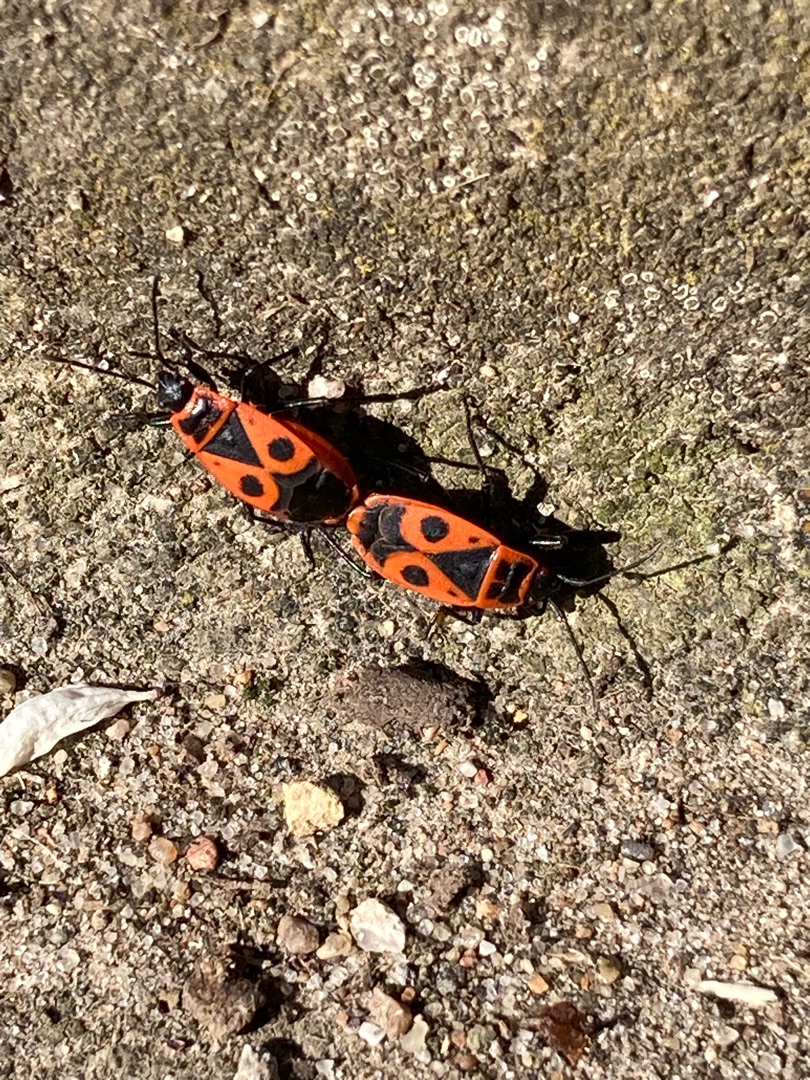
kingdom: Animalia
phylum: Arthropoda
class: Insecta
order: Hemiptera
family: Pyrrhocoridae
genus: Pyrrhocoris
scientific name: Pyrrhocoris apterus
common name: Ildtæge
